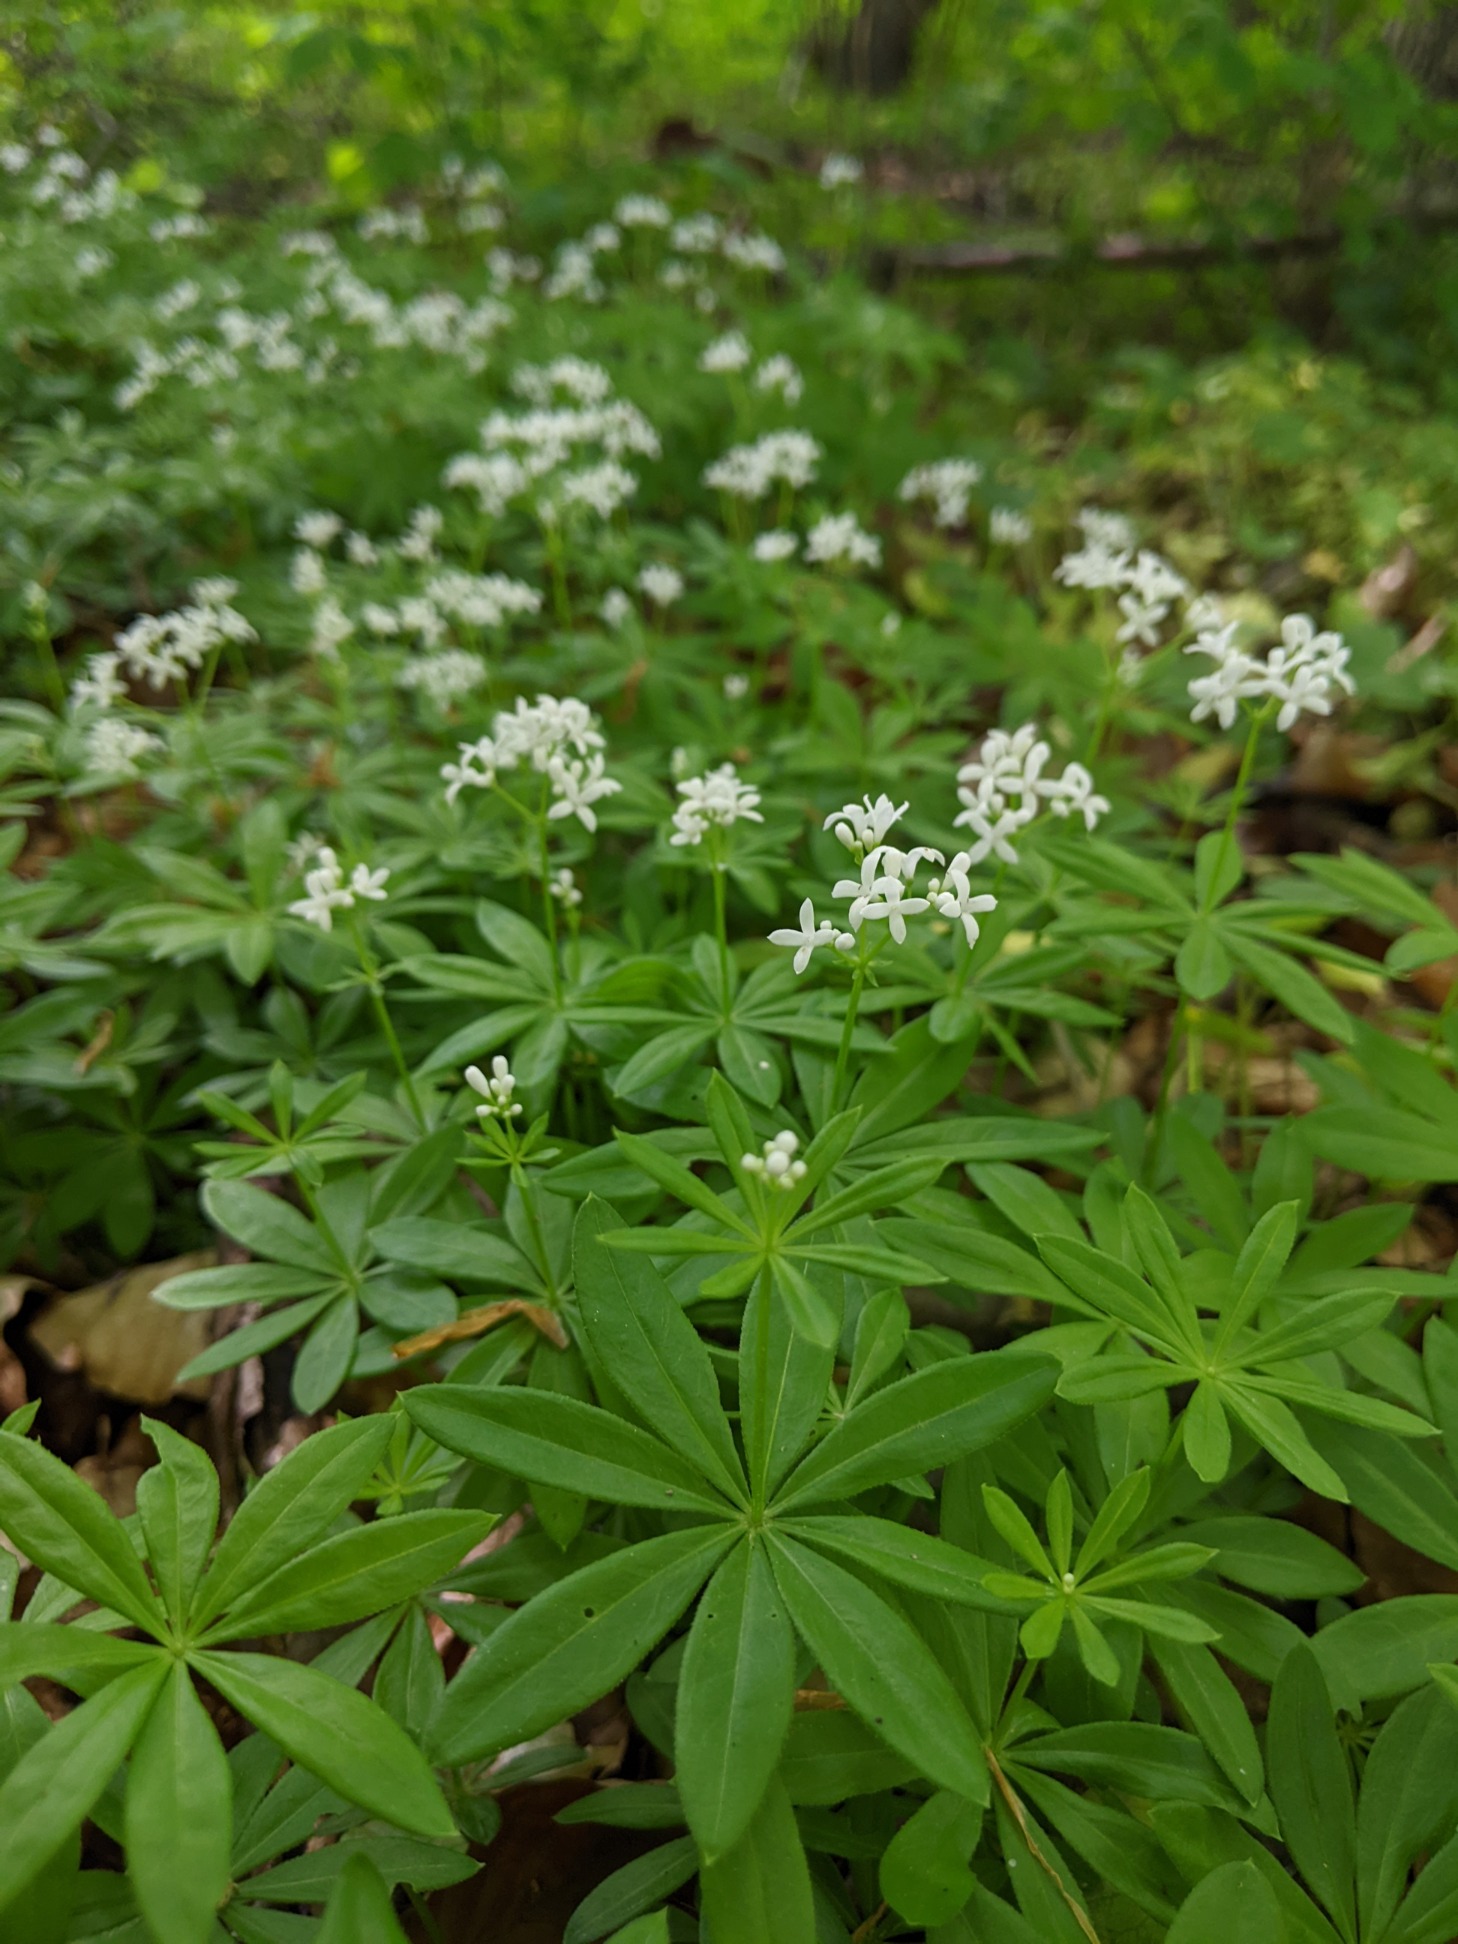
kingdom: Plantae
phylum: Tracheophyta
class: Magnoliopsida
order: Gentianales
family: Rubiaceae
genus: Galium
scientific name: Galium odoratum
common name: Skovmærke
